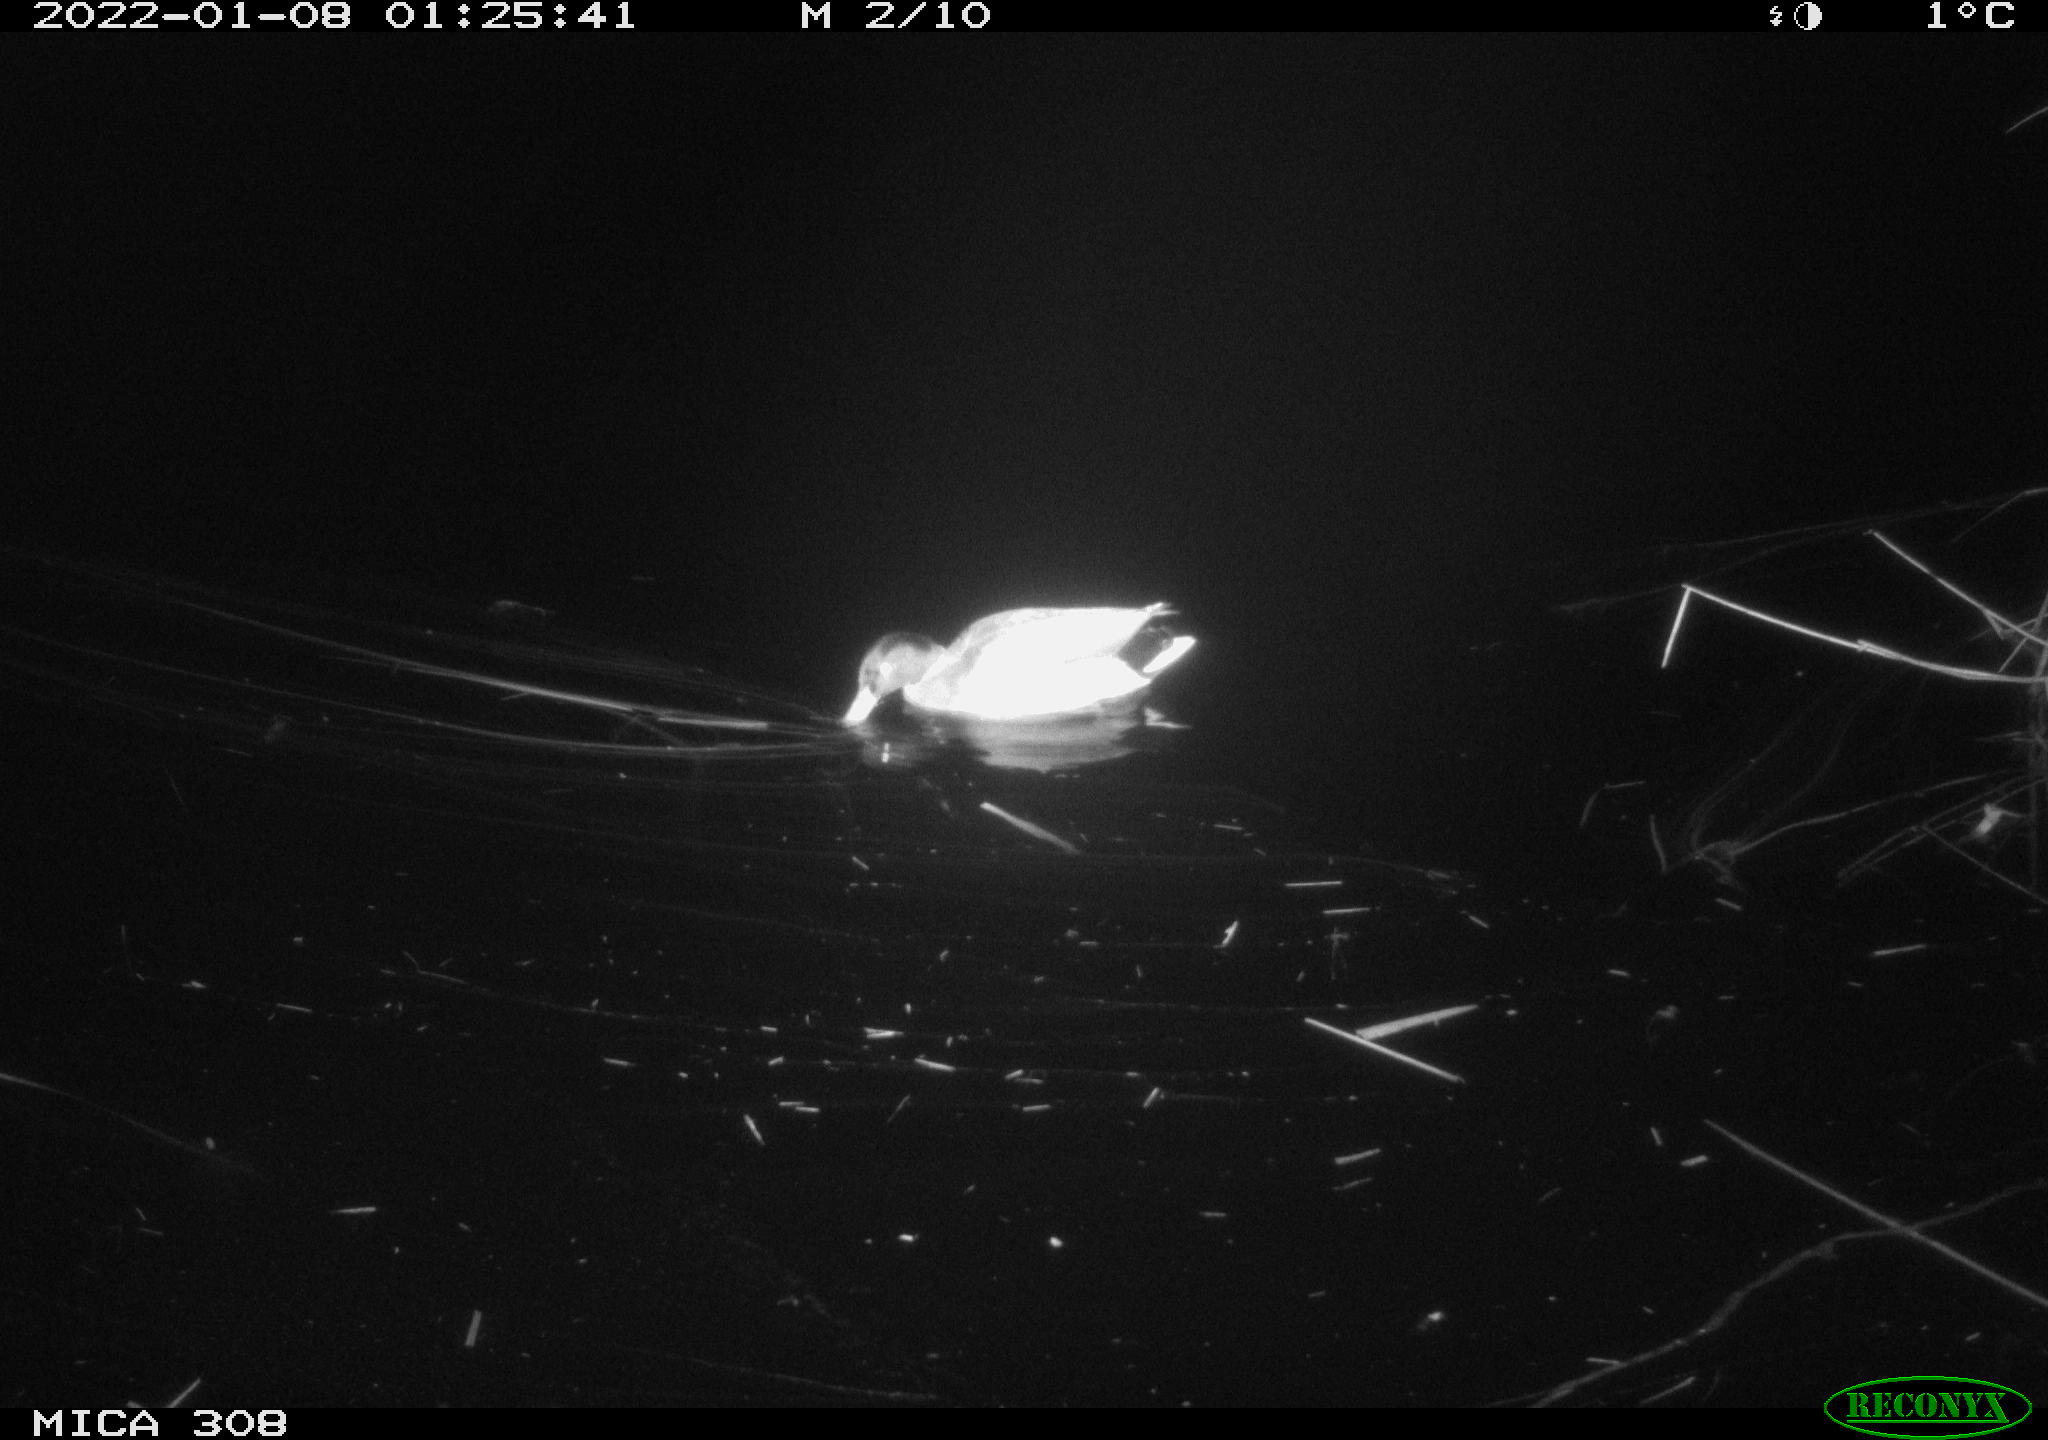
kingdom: Animalia
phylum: Chordata
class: Aves
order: Anseriformes
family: Anatidae
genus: Anas
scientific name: Anas
